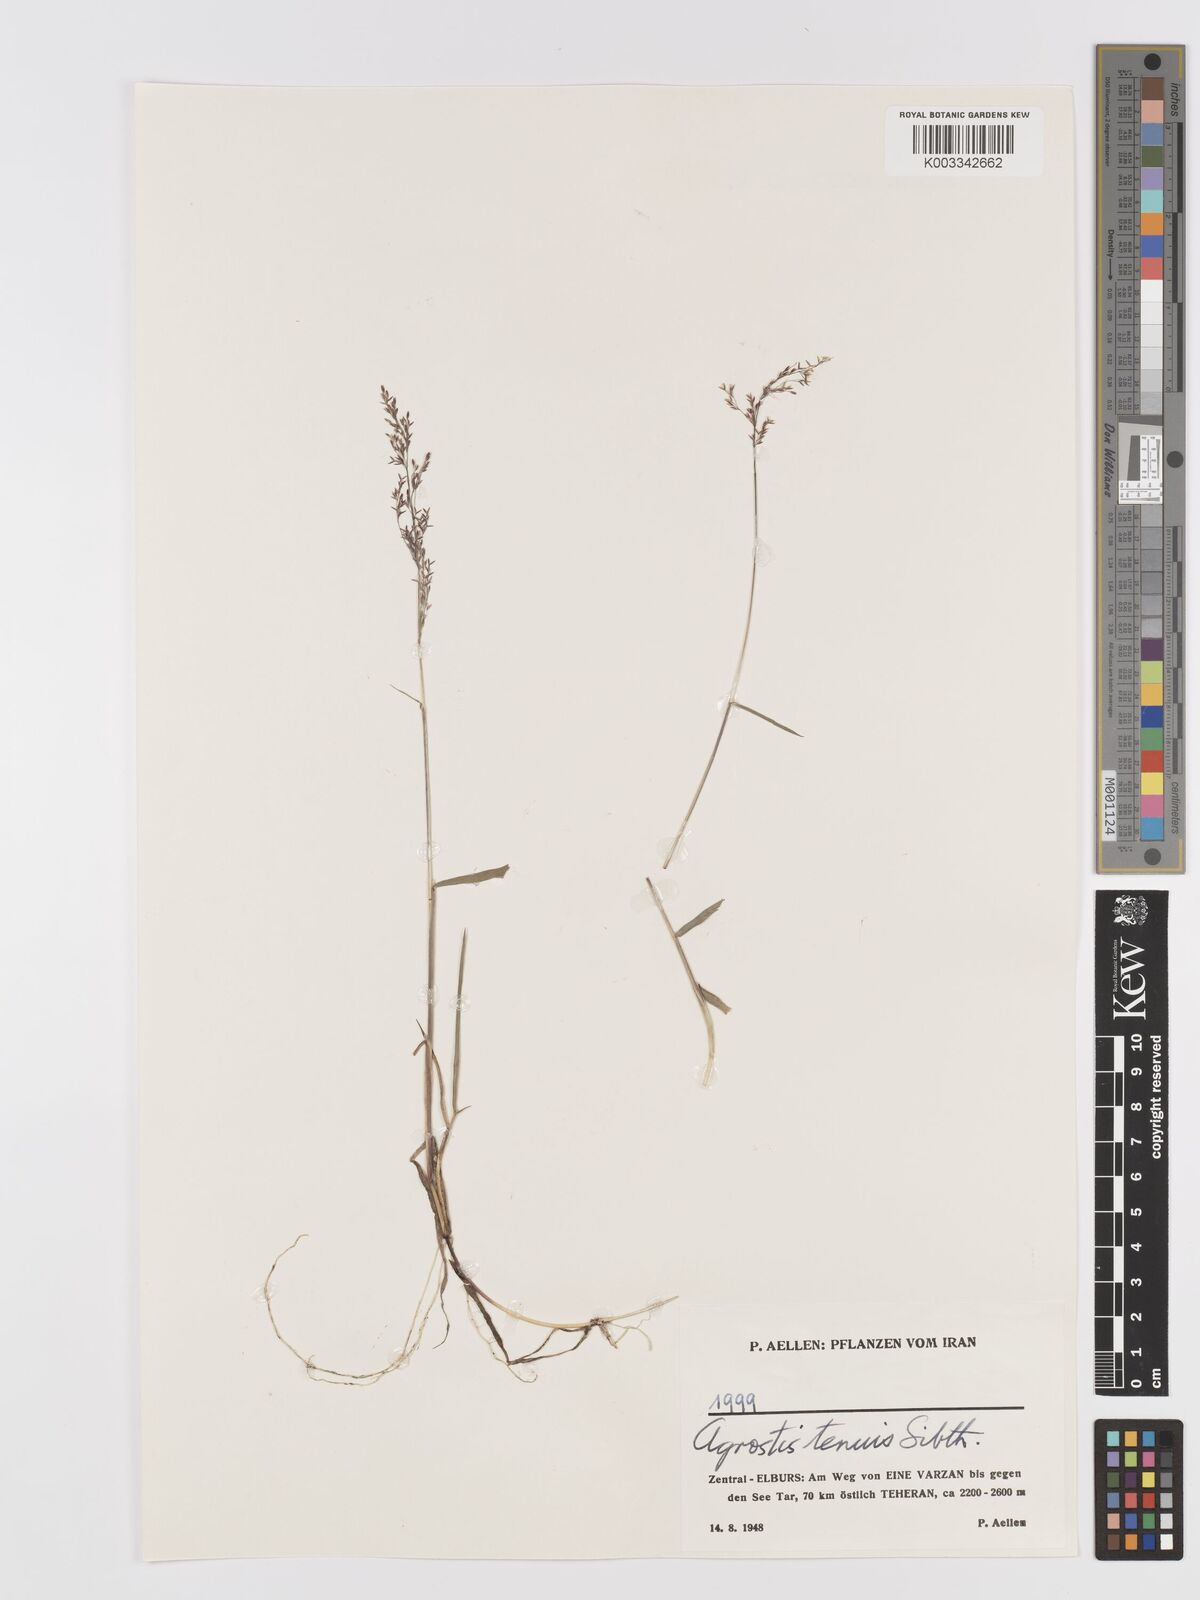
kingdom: Plantae
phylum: Tracheophyta
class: Liliopsida
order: Poales
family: Poaceae
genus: Agrostis
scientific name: Agrostis capillaris
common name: Colonial bentgrass
